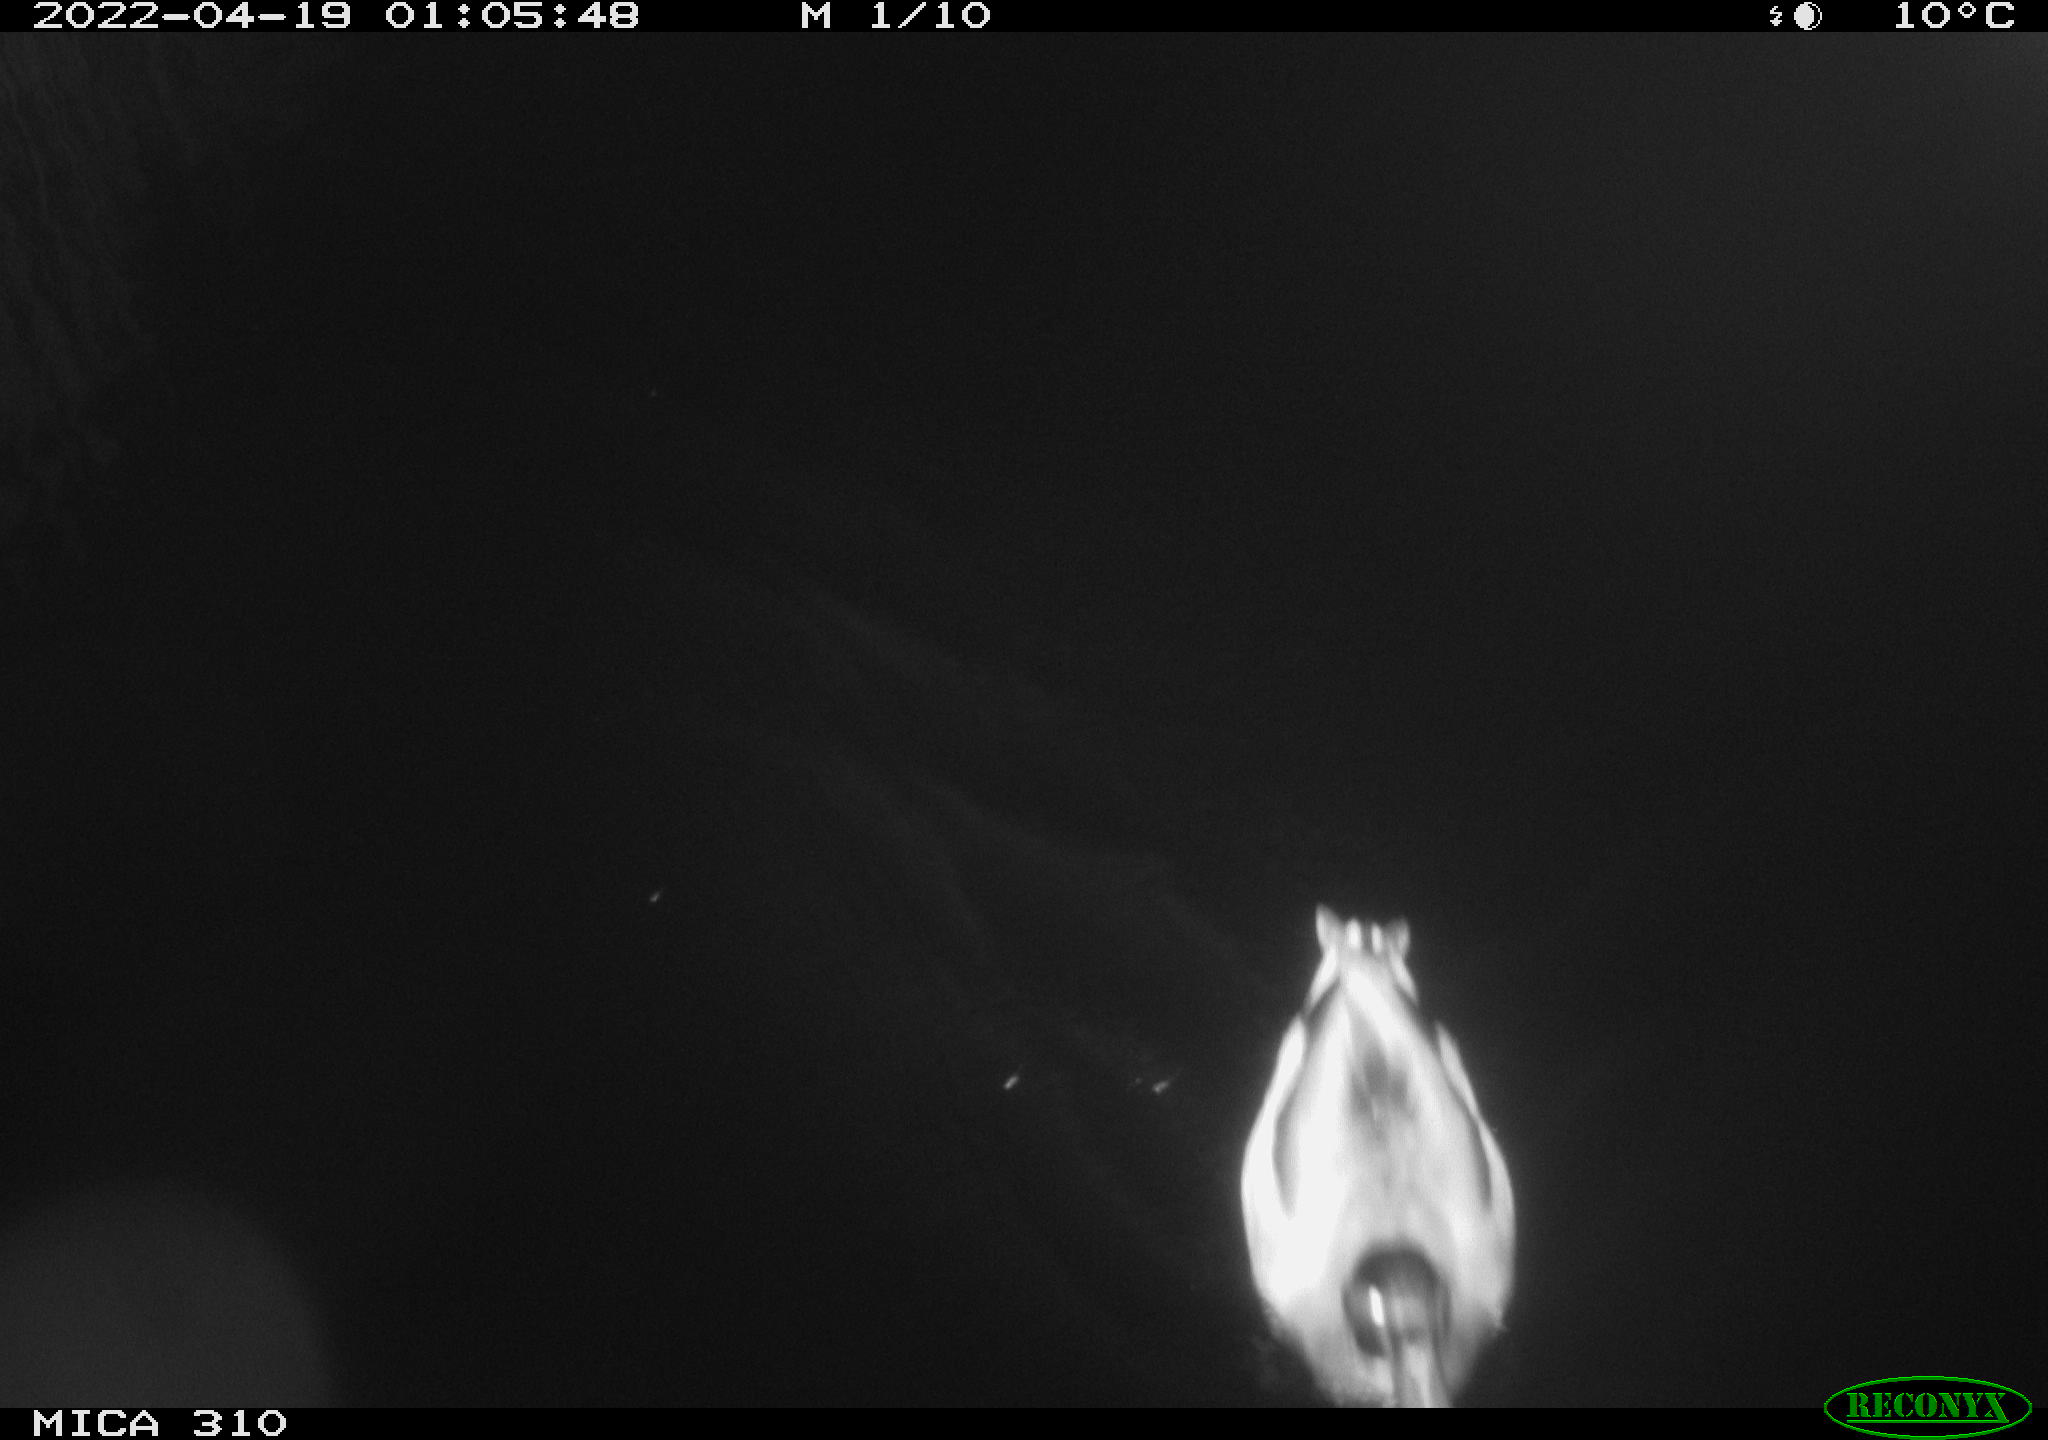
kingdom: Animalia
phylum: Chordata
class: Aves
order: Anseriformes
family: Anatidae
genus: Anas
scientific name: Anas platyrhynchos
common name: Mallard
